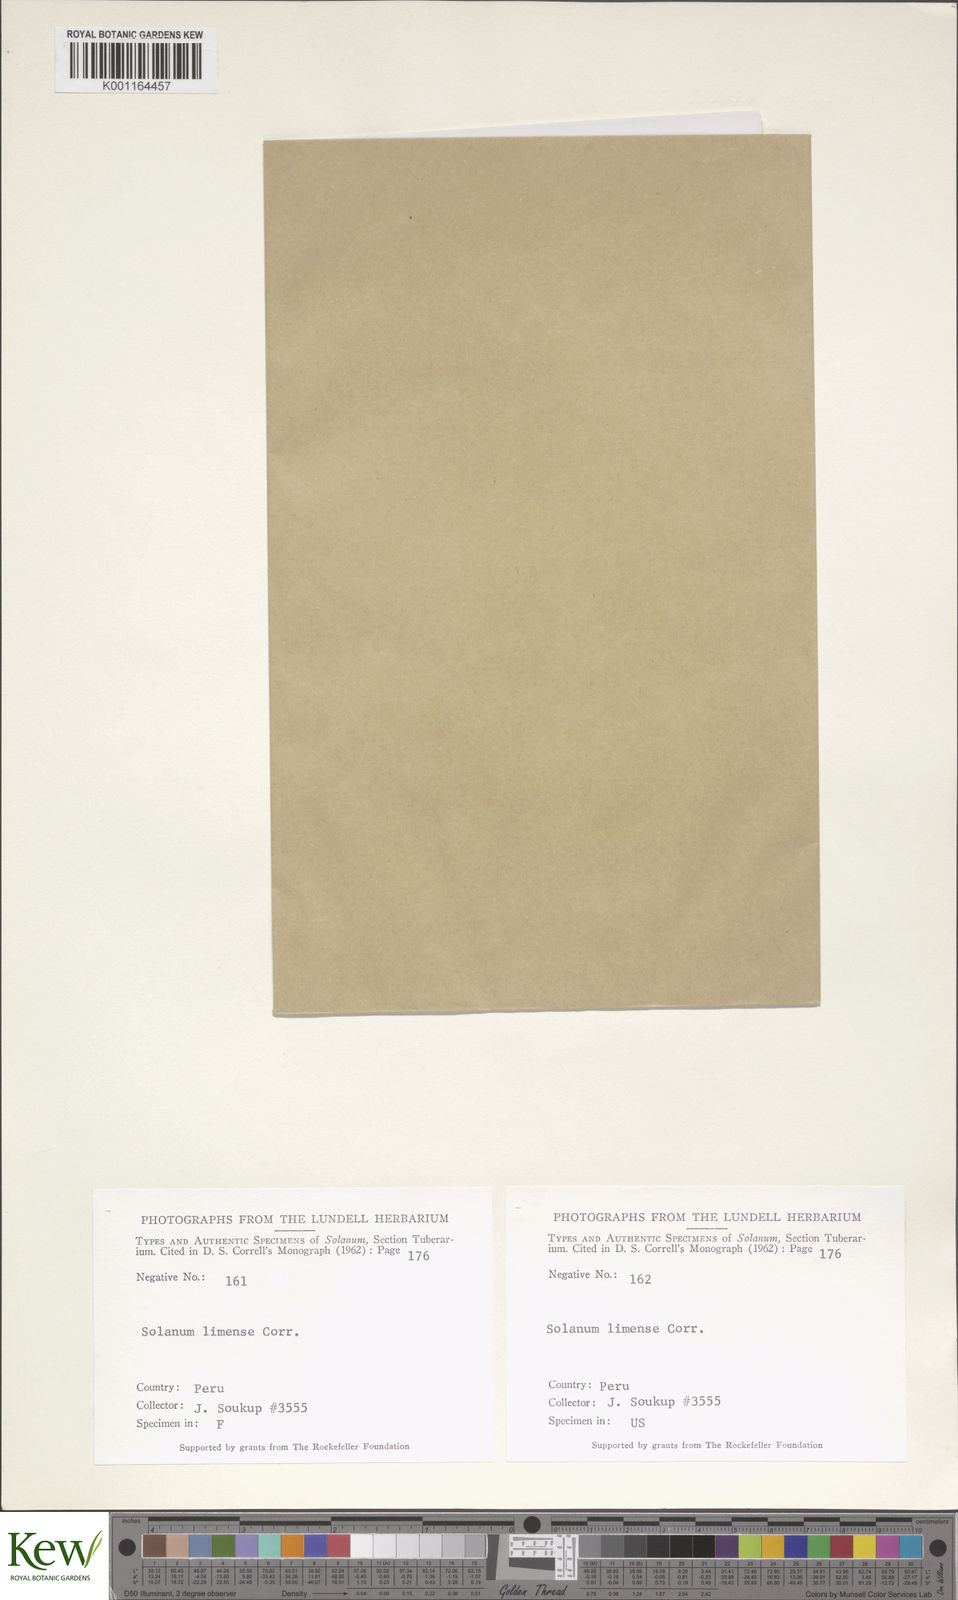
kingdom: Plantae
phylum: Tracheophyta
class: Magnoliopsida
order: Solanales
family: Solanaceae
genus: Solanum
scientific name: Solanum chacoense
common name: Chaco potato
